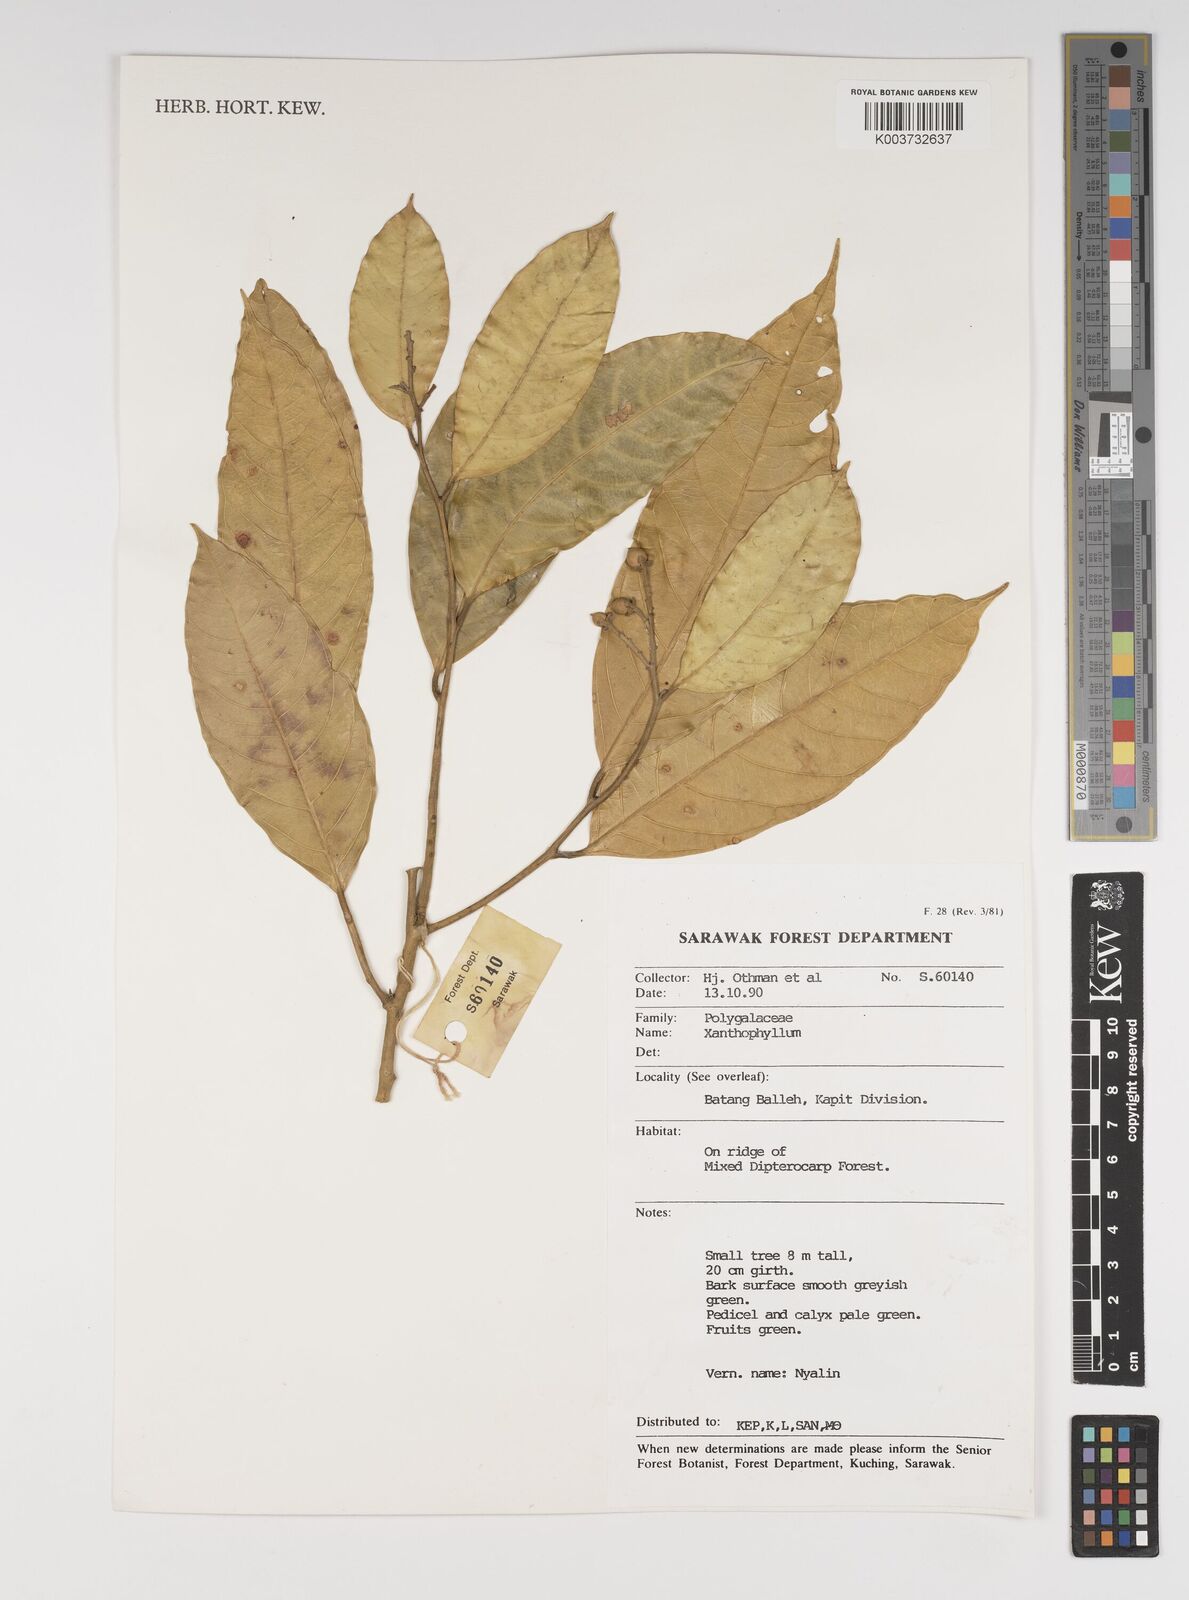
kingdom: Plantae
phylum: Tracheophyta
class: Magnoliopsida
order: Fabales
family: Polygalaceae
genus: Xanthophyllum
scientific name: Xanthophyllum
